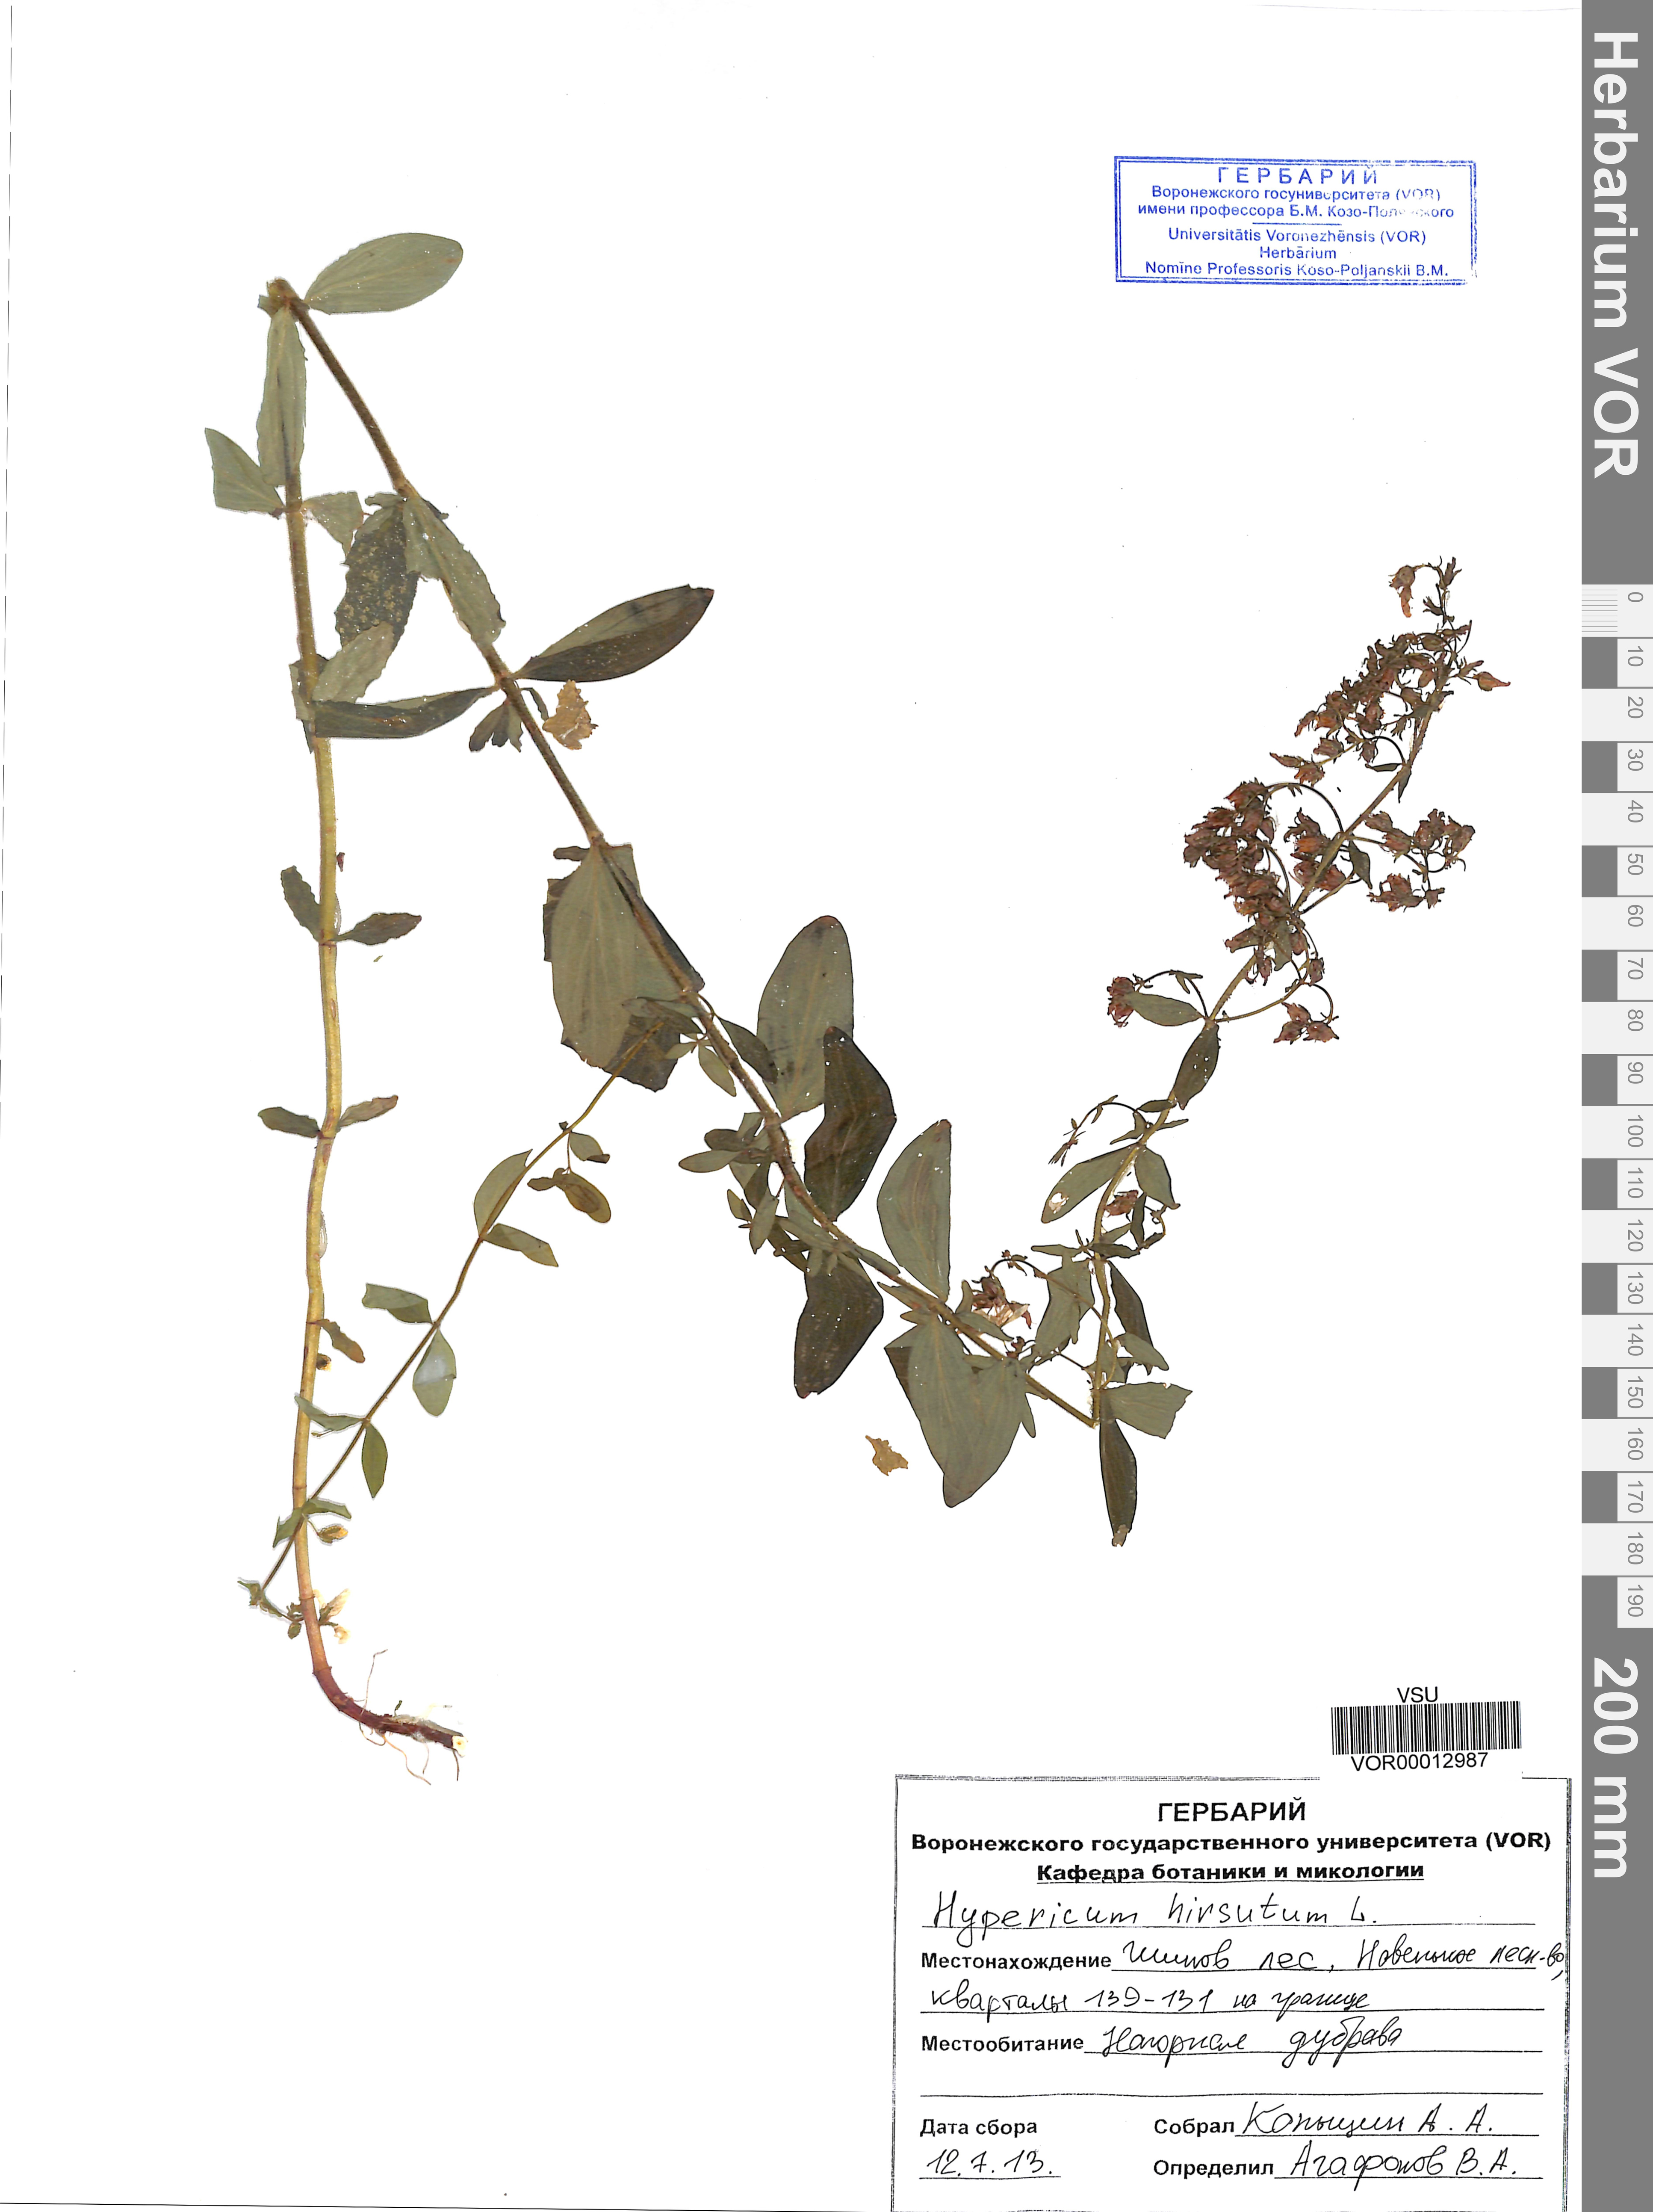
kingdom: Plantae
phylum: Tracheophyta
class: Magnoliopsida
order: Malpighiales
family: Hypericaceae
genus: Hypericum
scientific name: Hypericum hirsutum
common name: Hairy st. john's-wort
